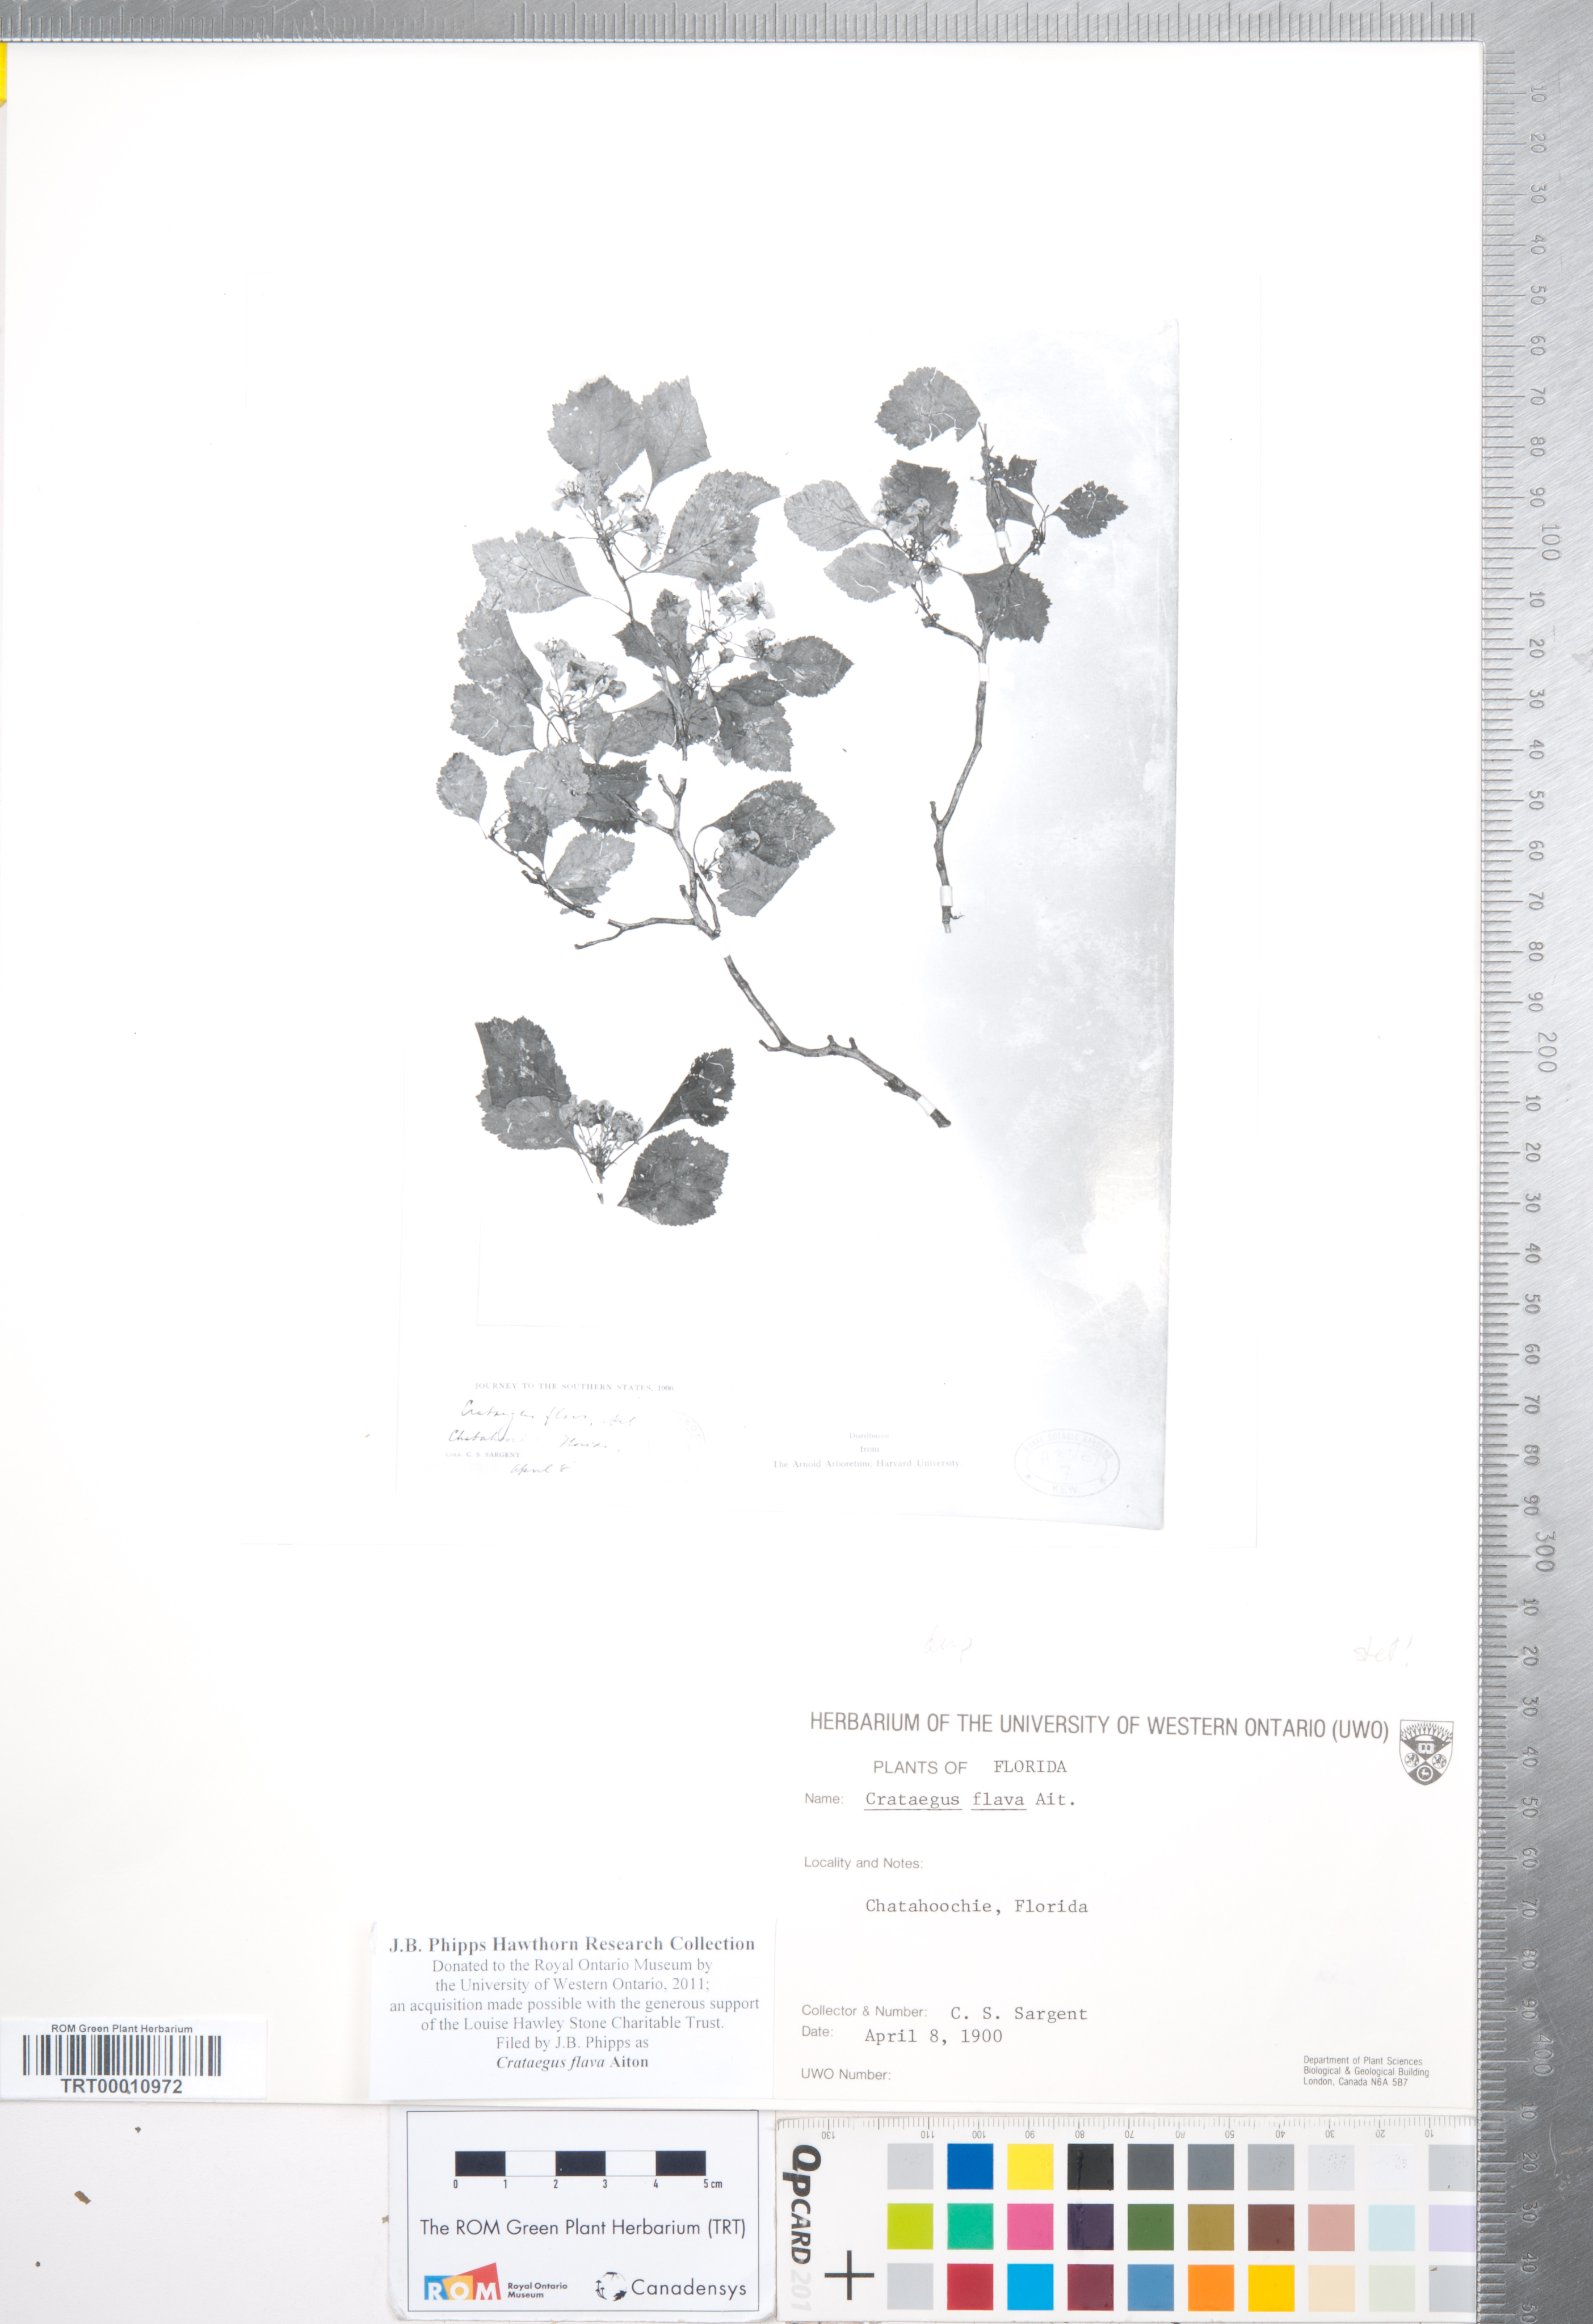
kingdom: Plantae
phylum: Tracheophyta
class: Magnoliopsida
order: Rosales
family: Rosaceae
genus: Crataegus
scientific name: Crataegus flava
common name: Yellow hawthorn
